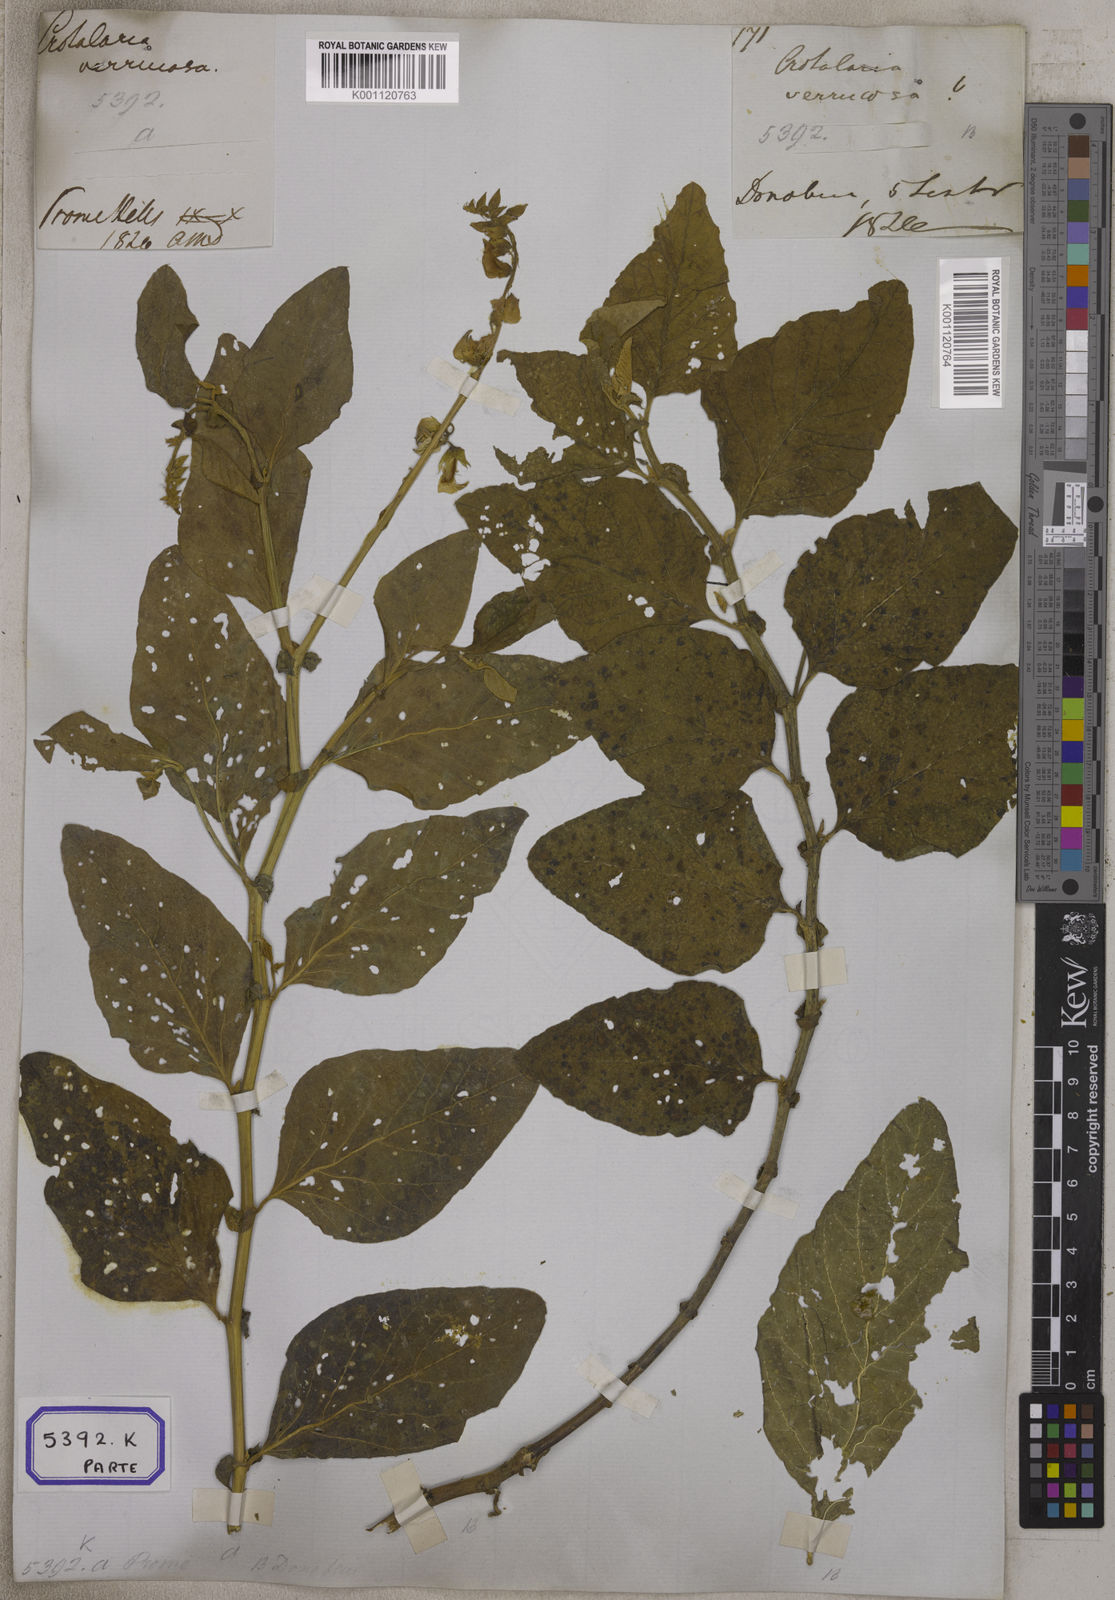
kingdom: Plantae
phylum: Tracheophyta
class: Magnoliopsida
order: Fabales
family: Fabaceae
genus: Crotalaria
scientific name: Crotalaria verrucosa
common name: Blue rattlesnake
